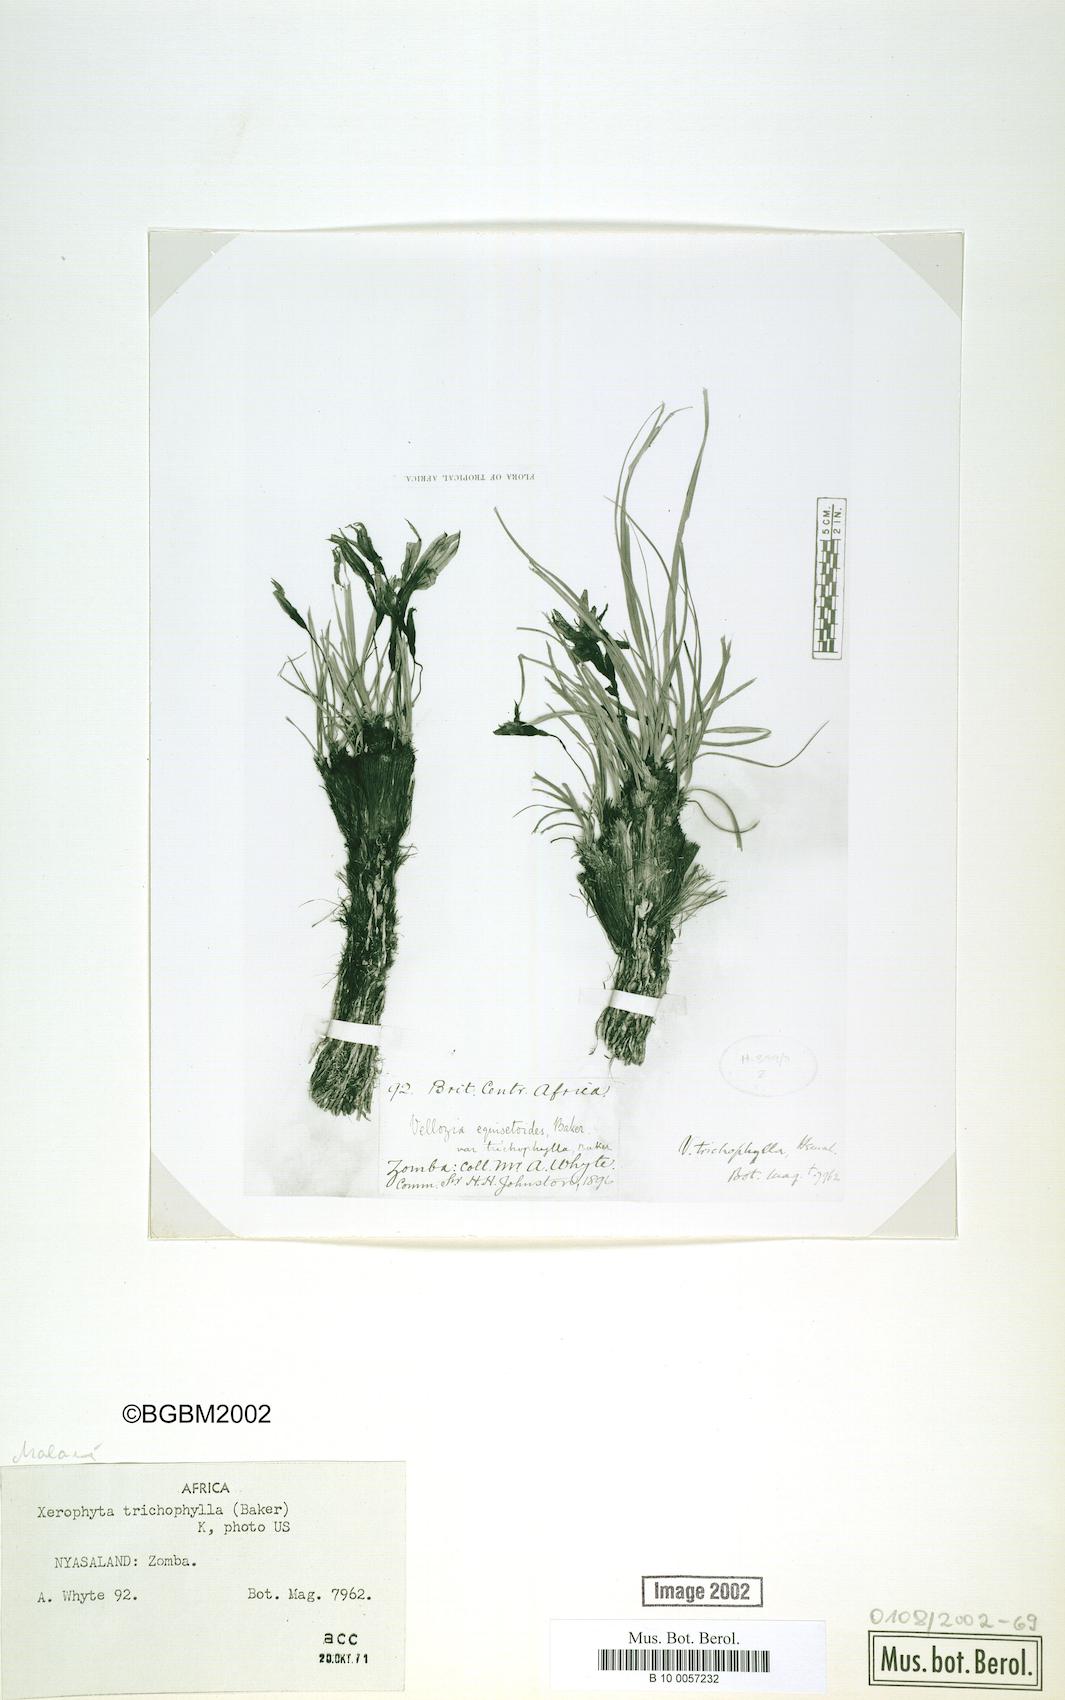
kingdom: Plantae
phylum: Tracheophyta
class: Liliopsida
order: Pandanales
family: Velloziaceae
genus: Xerophyta
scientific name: Xerophyta trichophylla
